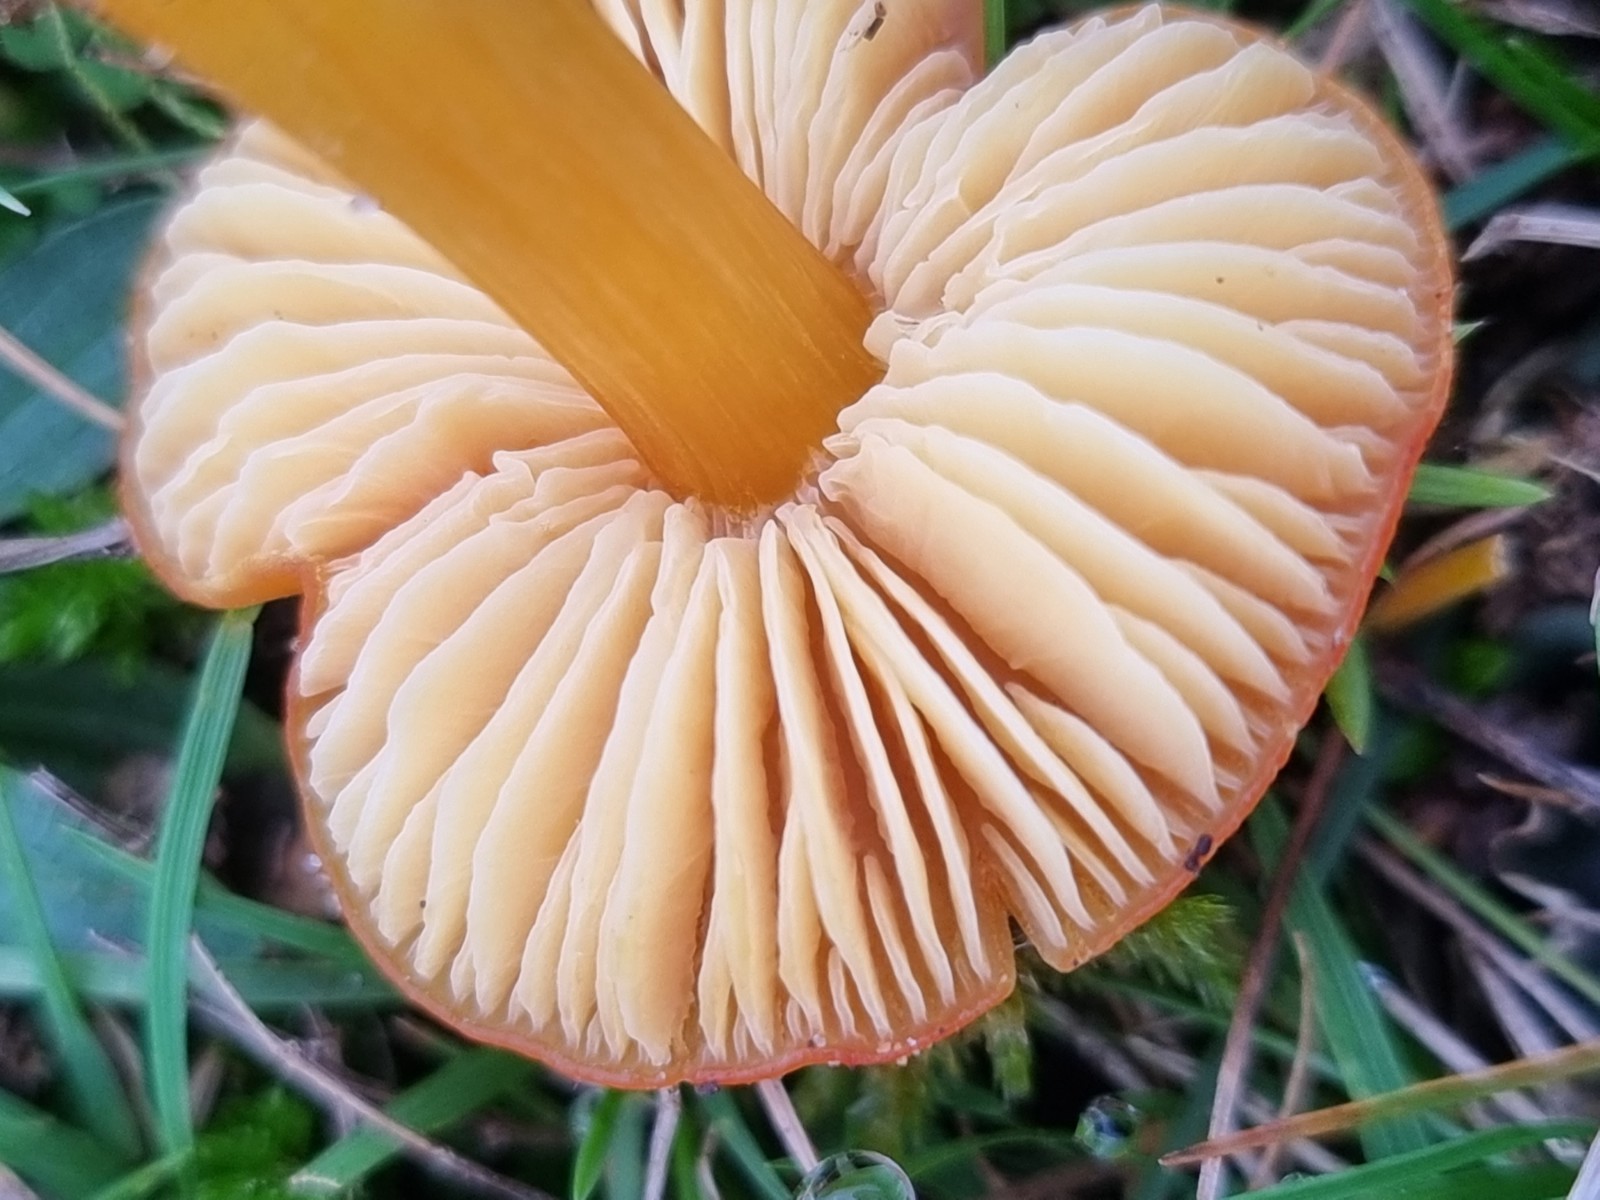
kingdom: Fungi
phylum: Basidiomycota
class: Agaricomycetes
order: Agaricales
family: Hygrophoraceae
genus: Hygrocybe
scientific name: Hygrocybe
